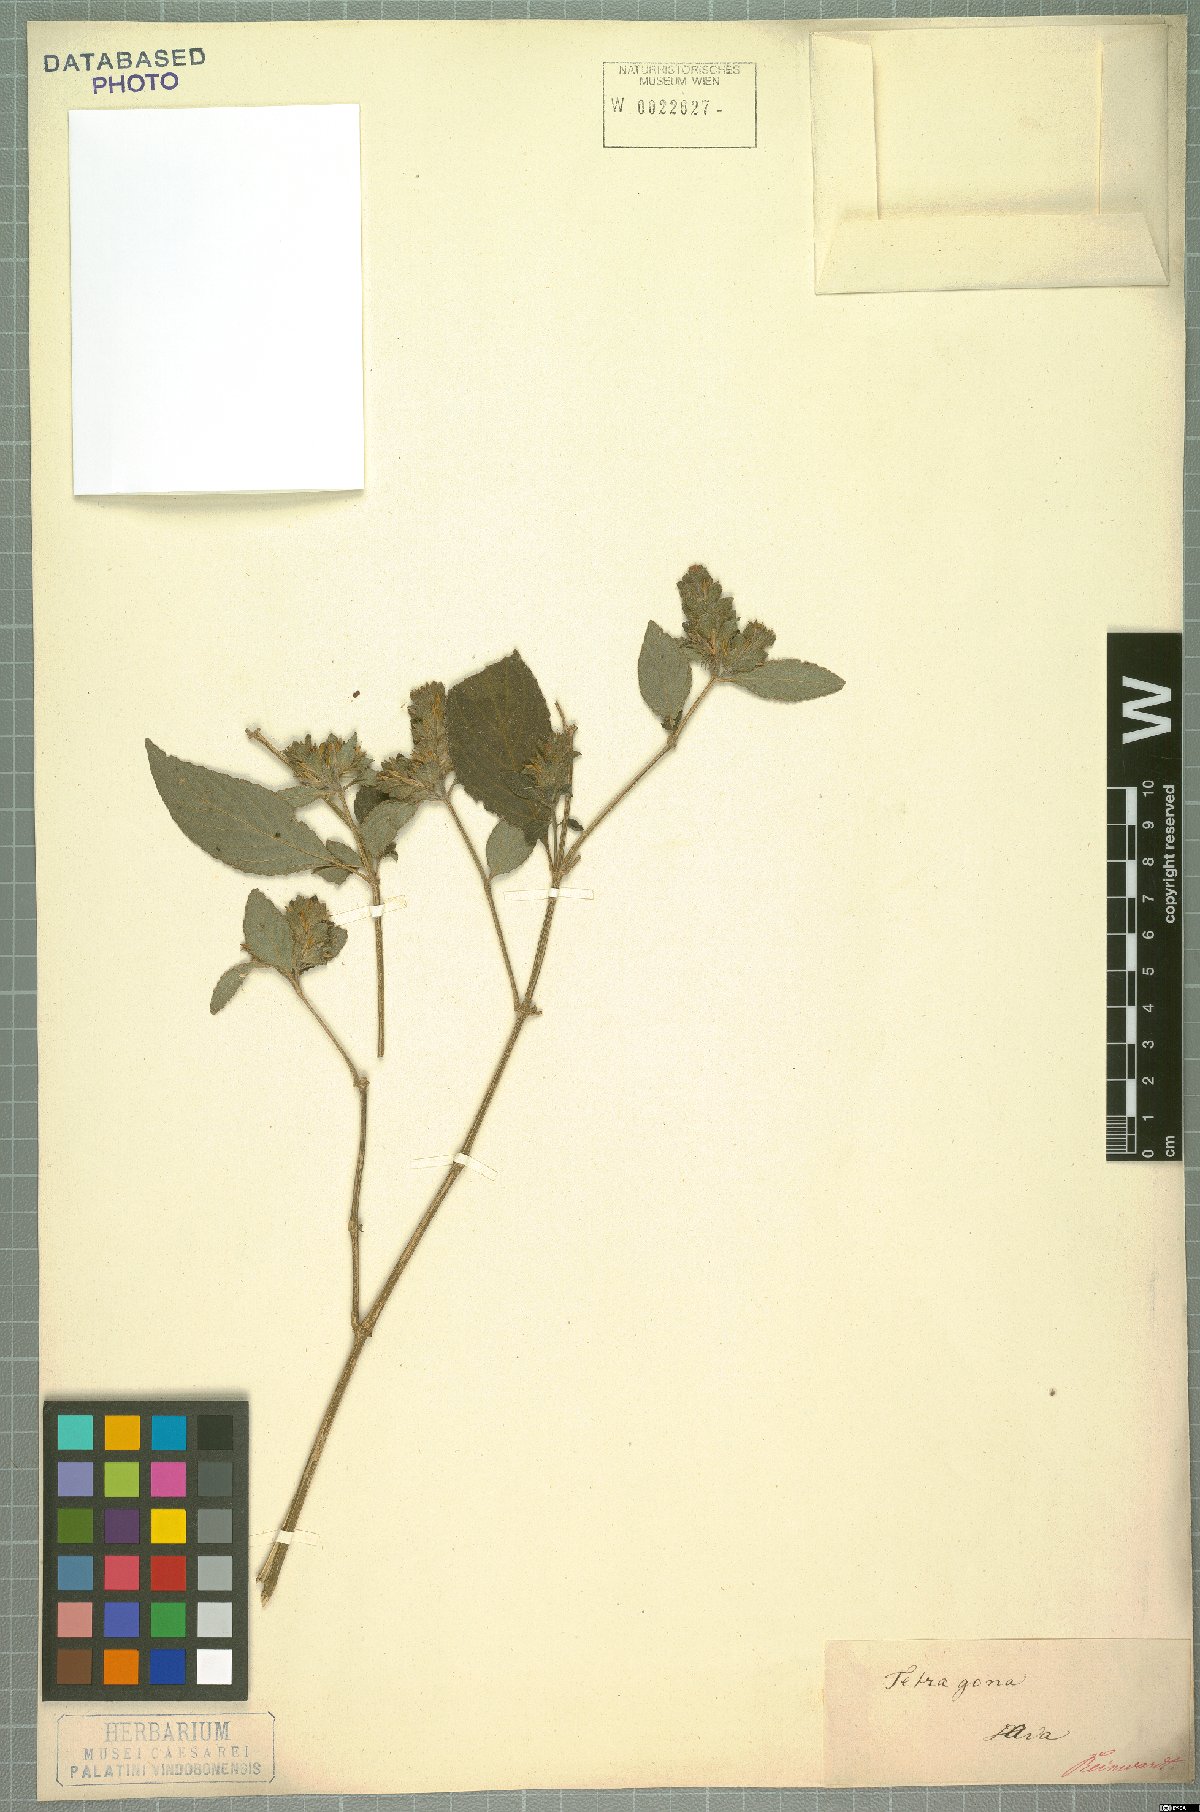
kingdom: Plantae
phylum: Tracheophyta
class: Magnoliopsida
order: Lamiales
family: Acanthaceae
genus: Mackaya
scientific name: Mackaya neesiana
